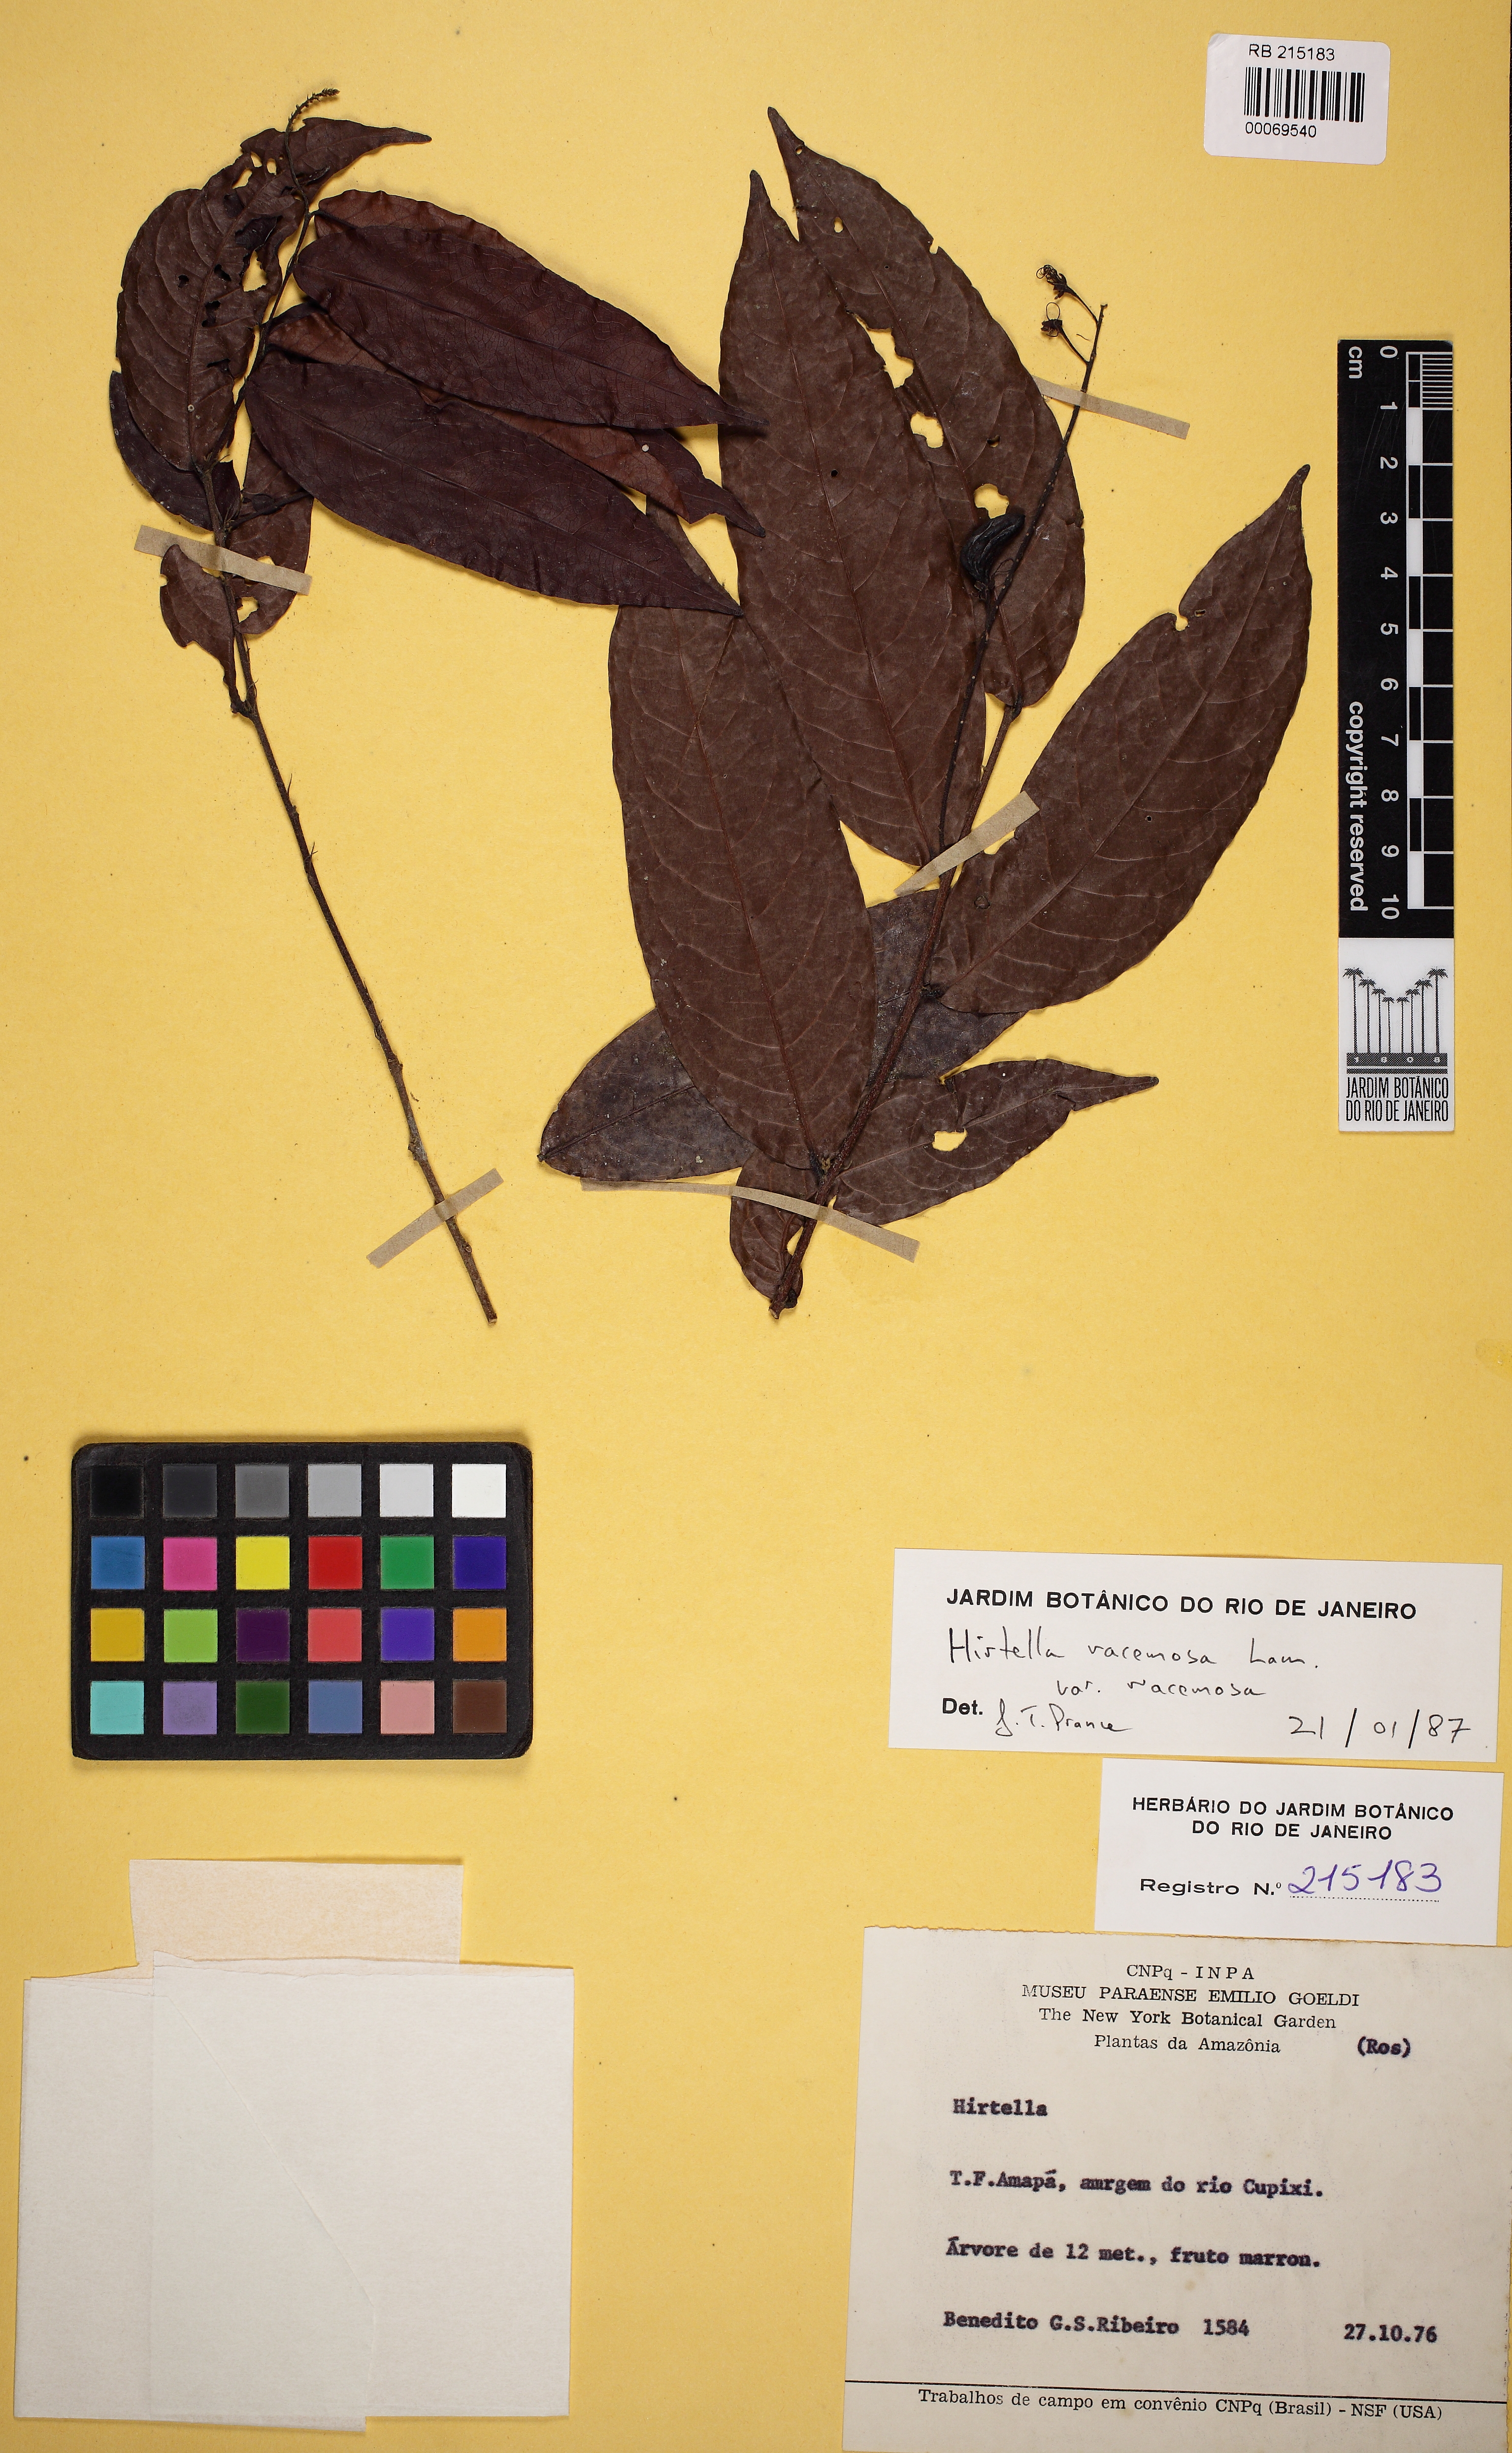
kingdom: Plantae
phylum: Tracheophyta
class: Magnoliopsida
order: Malpighiales
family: Chrysobalanaceae
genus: Hirtella
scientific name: Hirtella racemosa
